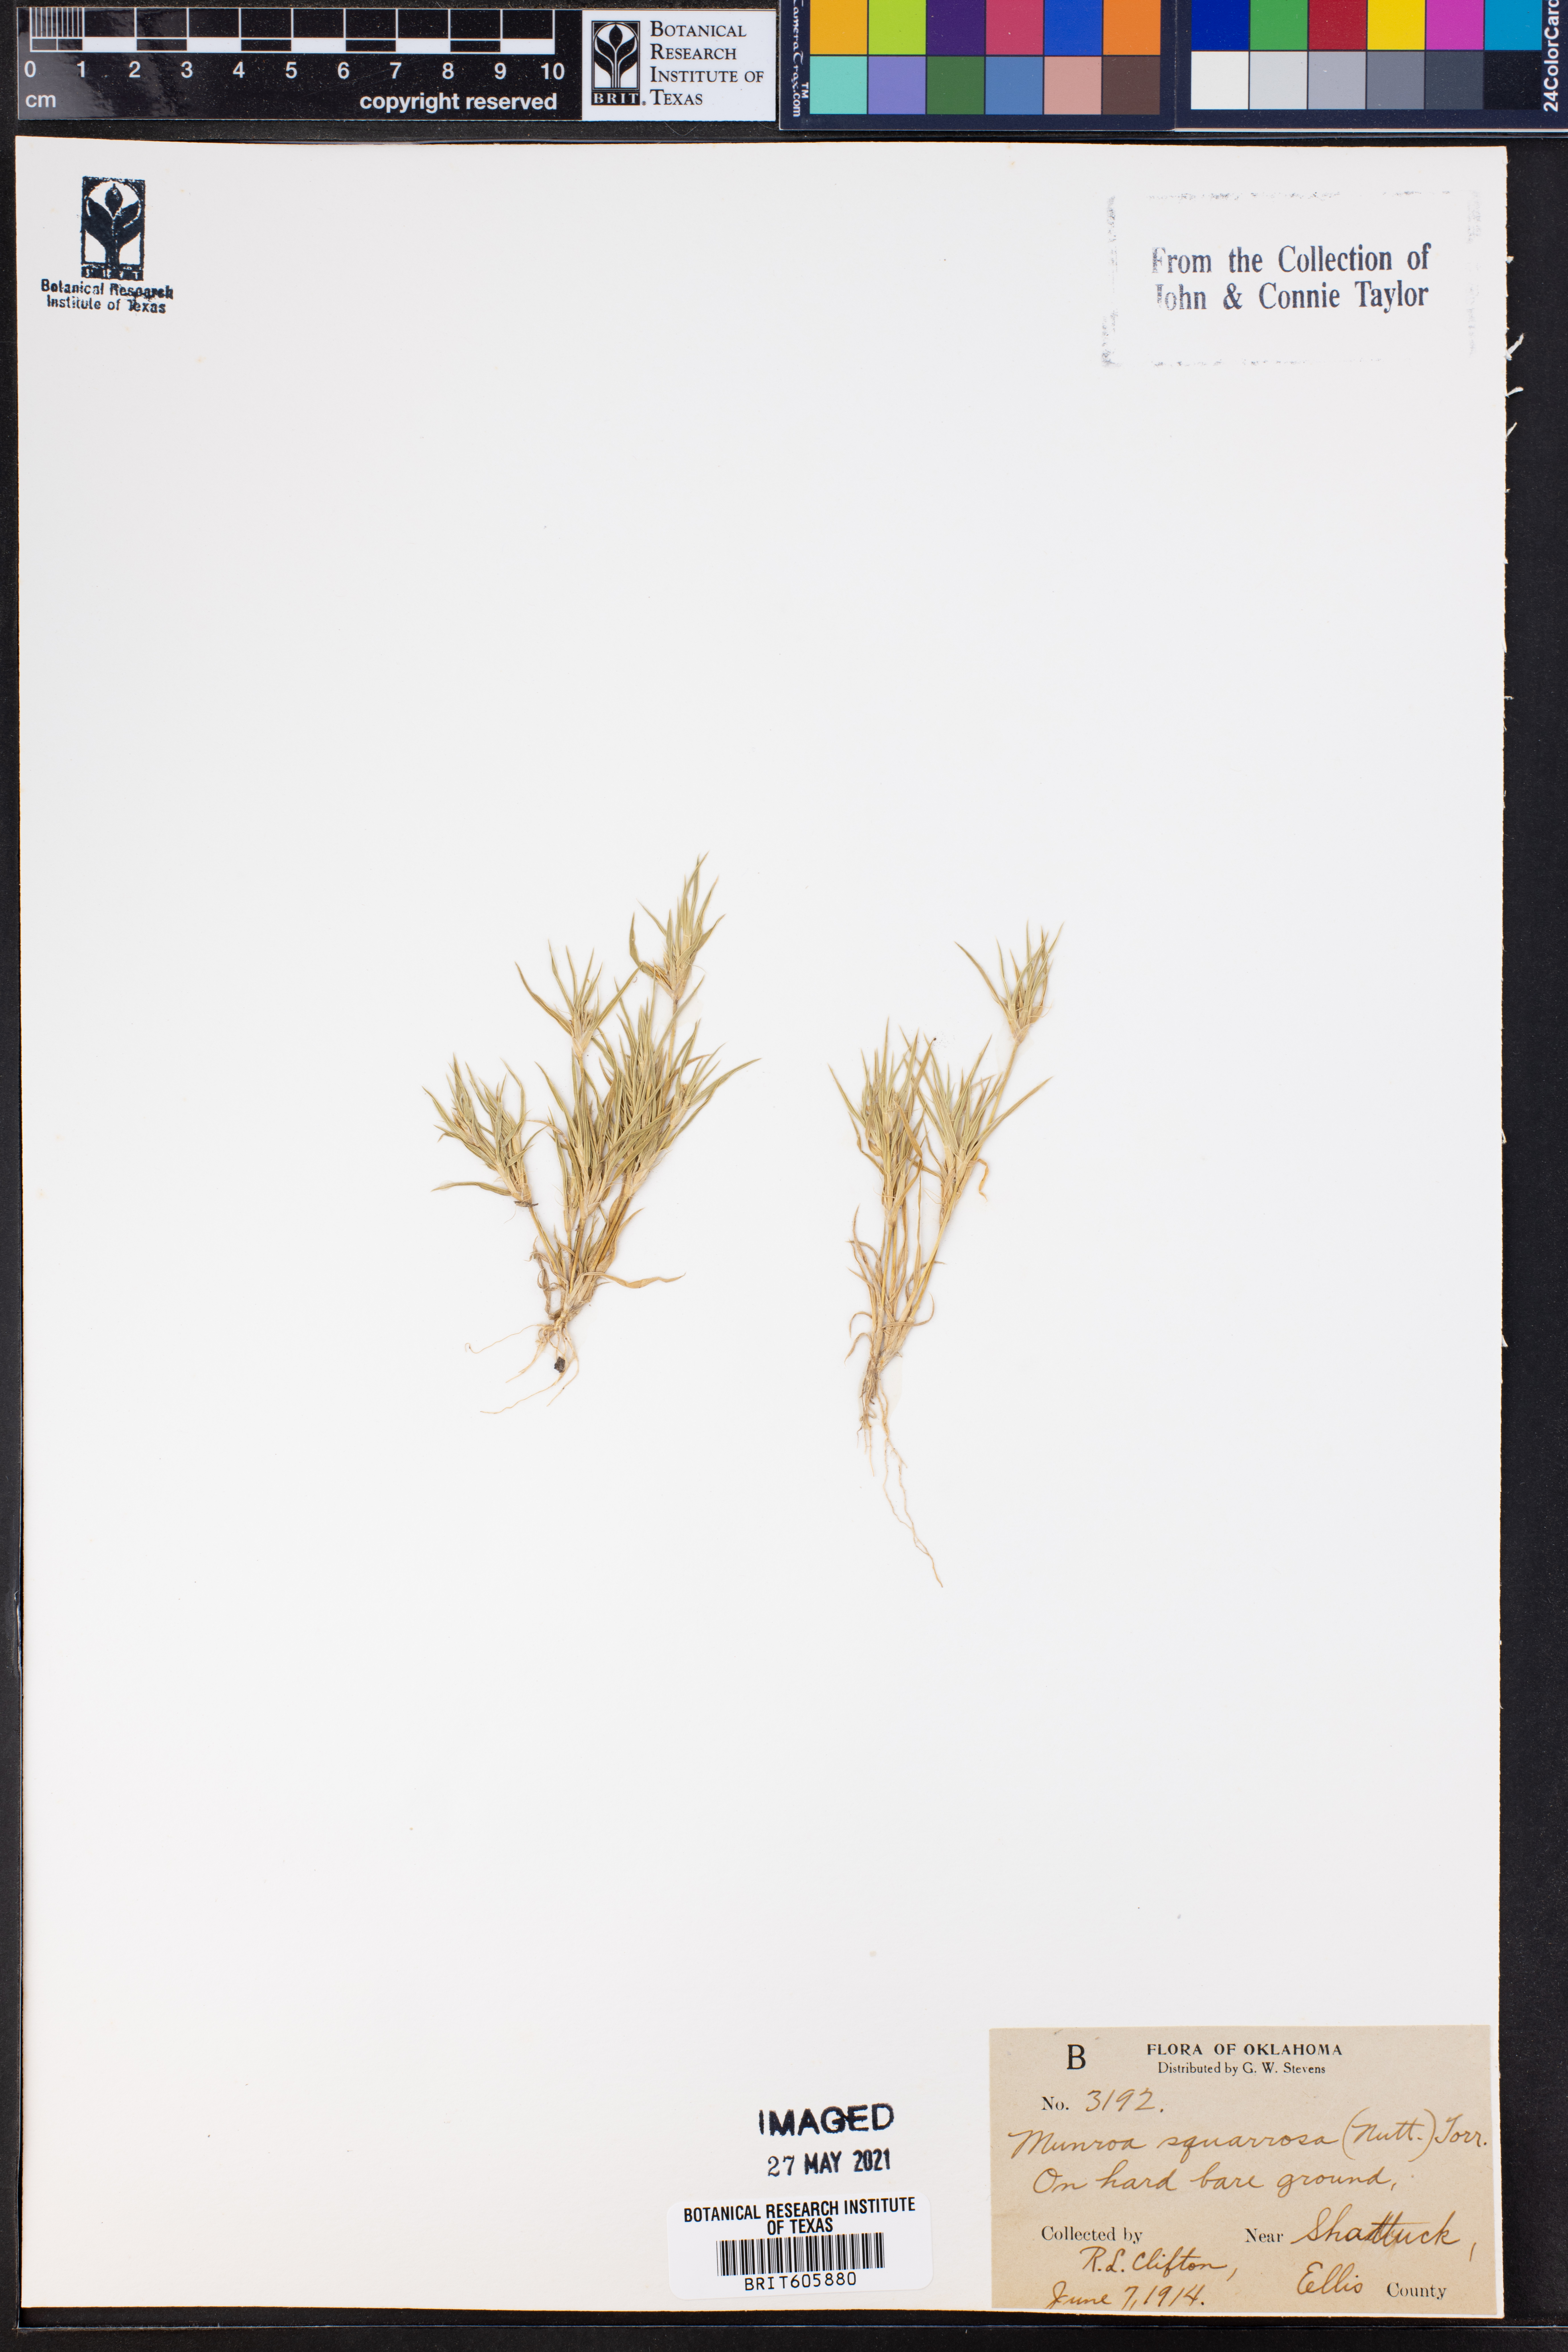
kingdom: Plantae
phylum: Tracheophyta
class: Liliopsida
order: Poales
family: Poaceae
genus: Munroa
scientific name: Munroa squarrosa
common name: False buffalo grass
